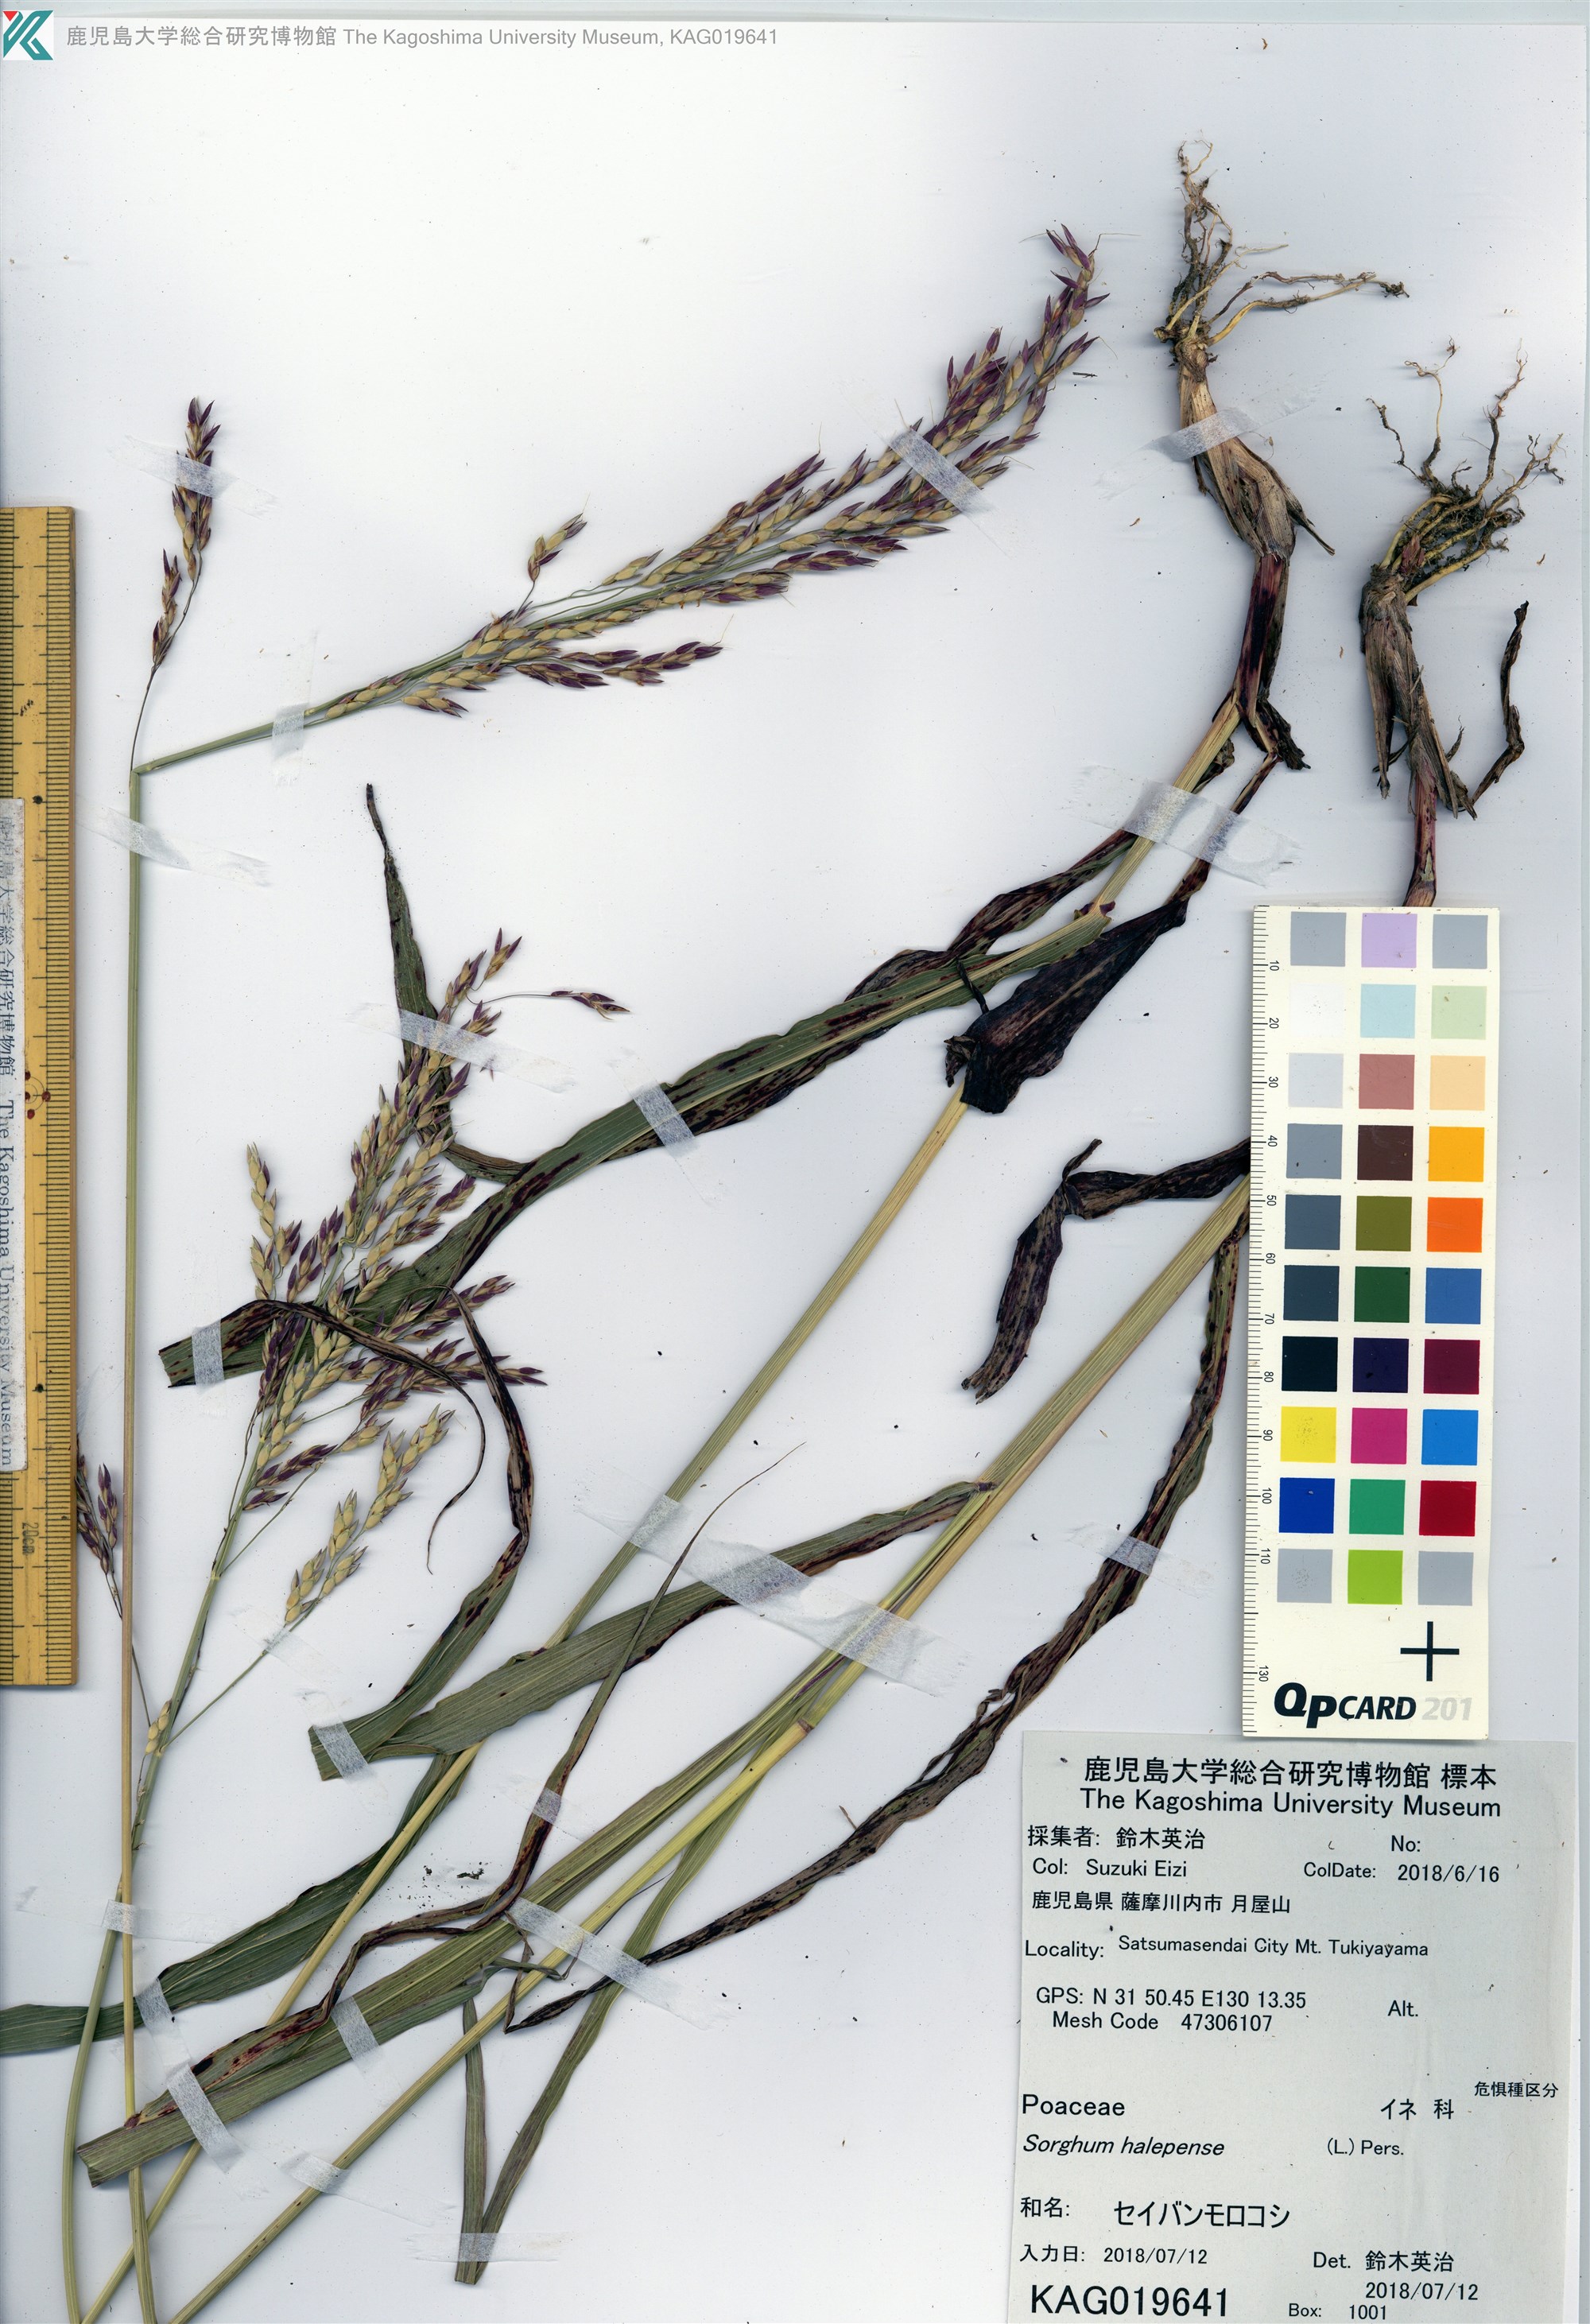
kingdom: Plantae
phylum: Tracheophyta
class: Liliopsida
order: Poales
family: Poaceae
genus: Sorghum
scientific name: Sorghum halepense
